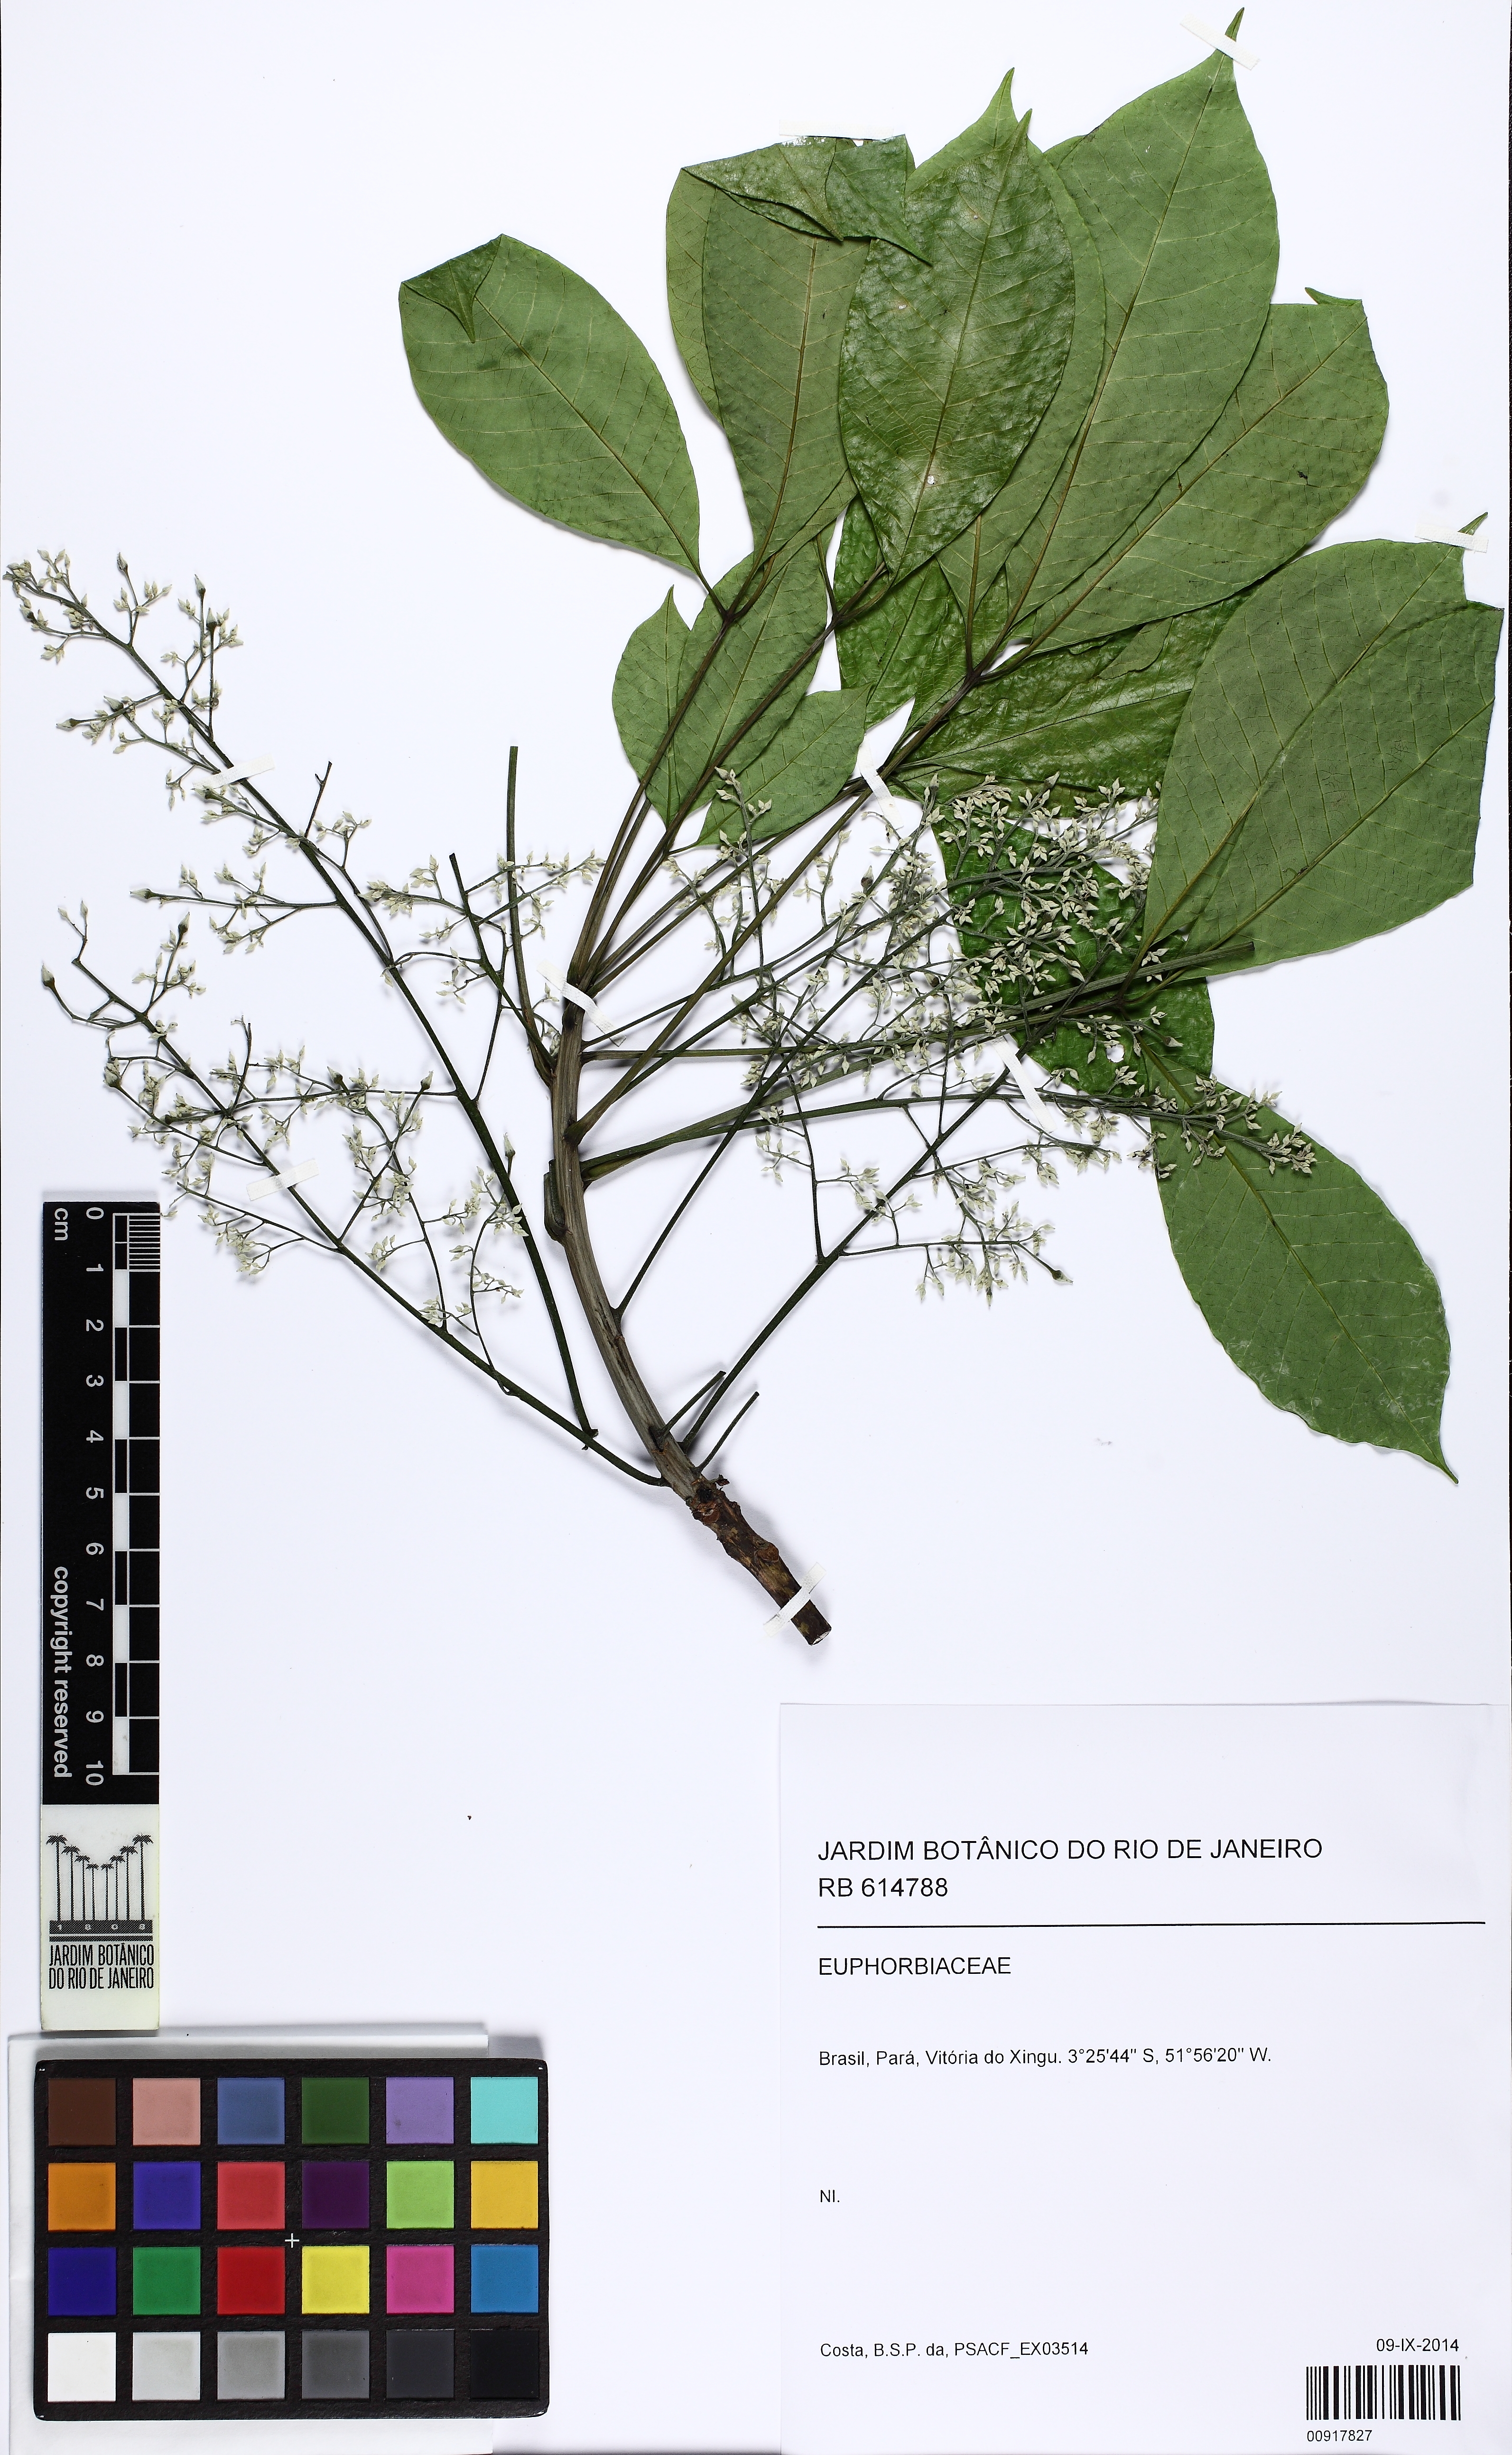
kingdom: Plantae
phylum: Tracheophyta
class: Magnoliopsida
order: Malpighiales
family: Euphorbiaceae
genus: Hevea
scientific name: Hevea brasiliensis
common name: Natural rubber
